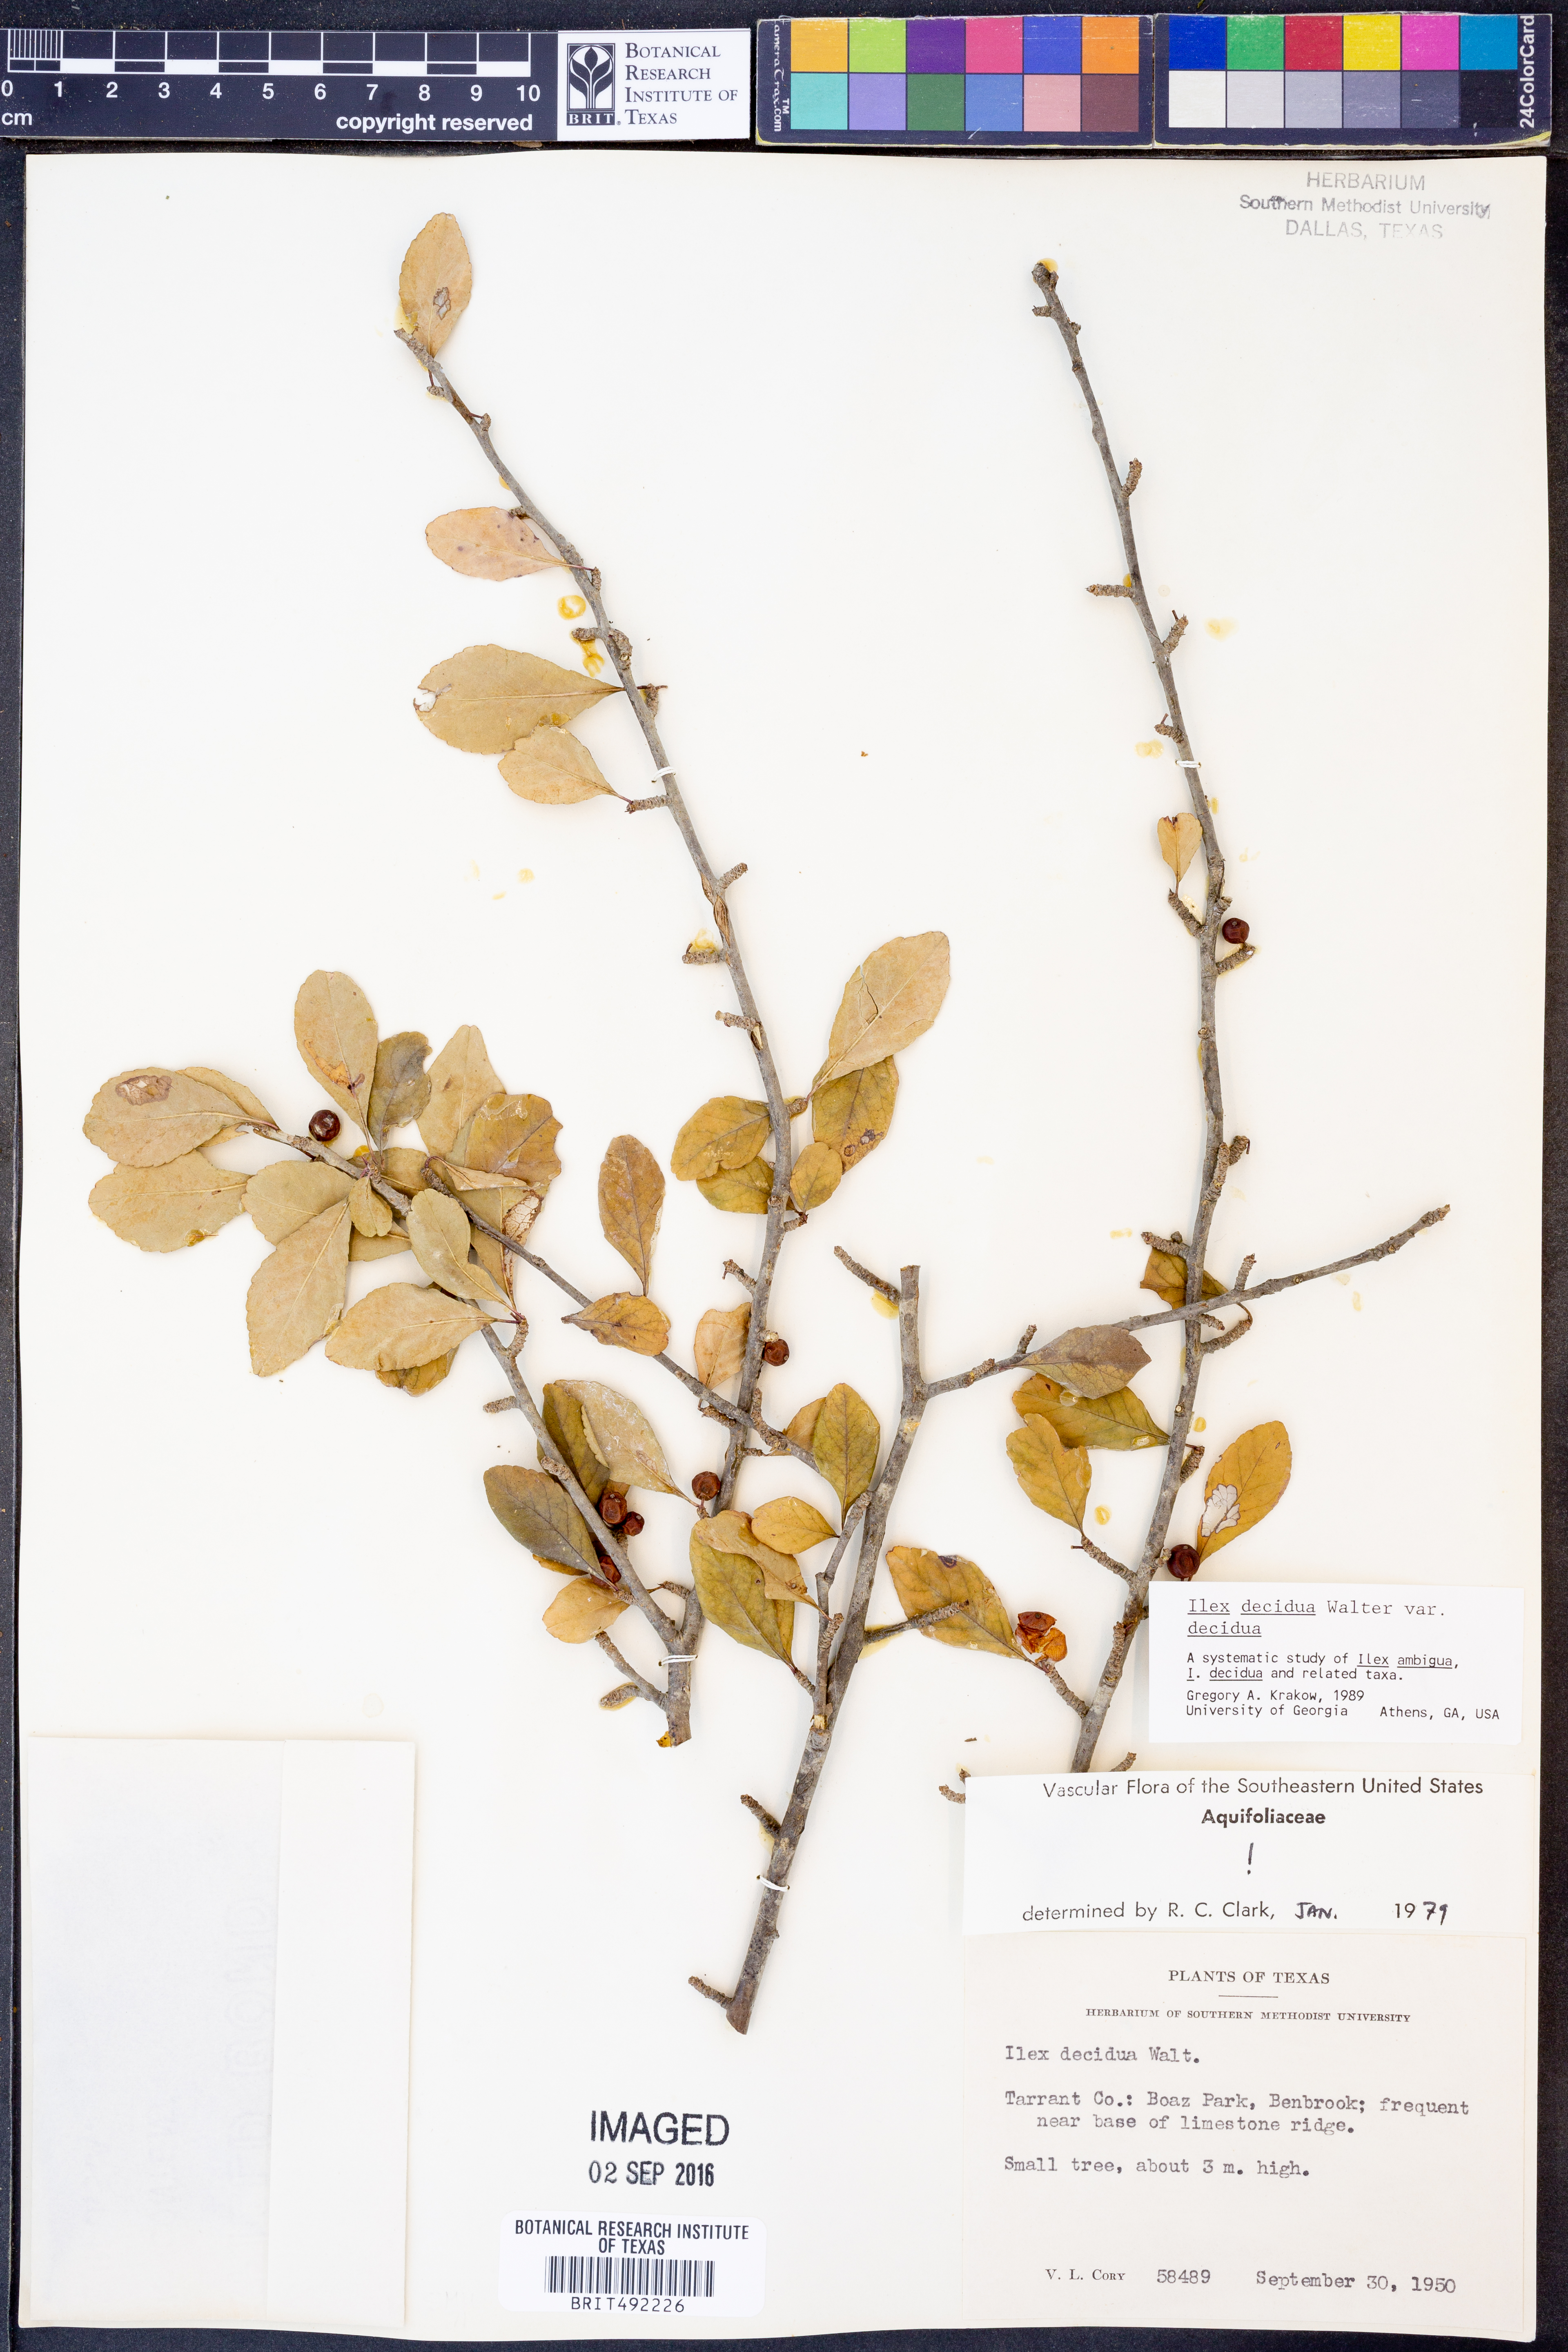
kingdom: Plantae
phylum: Tracheophyta
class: Magnoliopsida
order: Aquifoliales
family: Aquifoliaceae
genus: Ilex
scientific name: Ilex decidua
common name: Possum-haw
